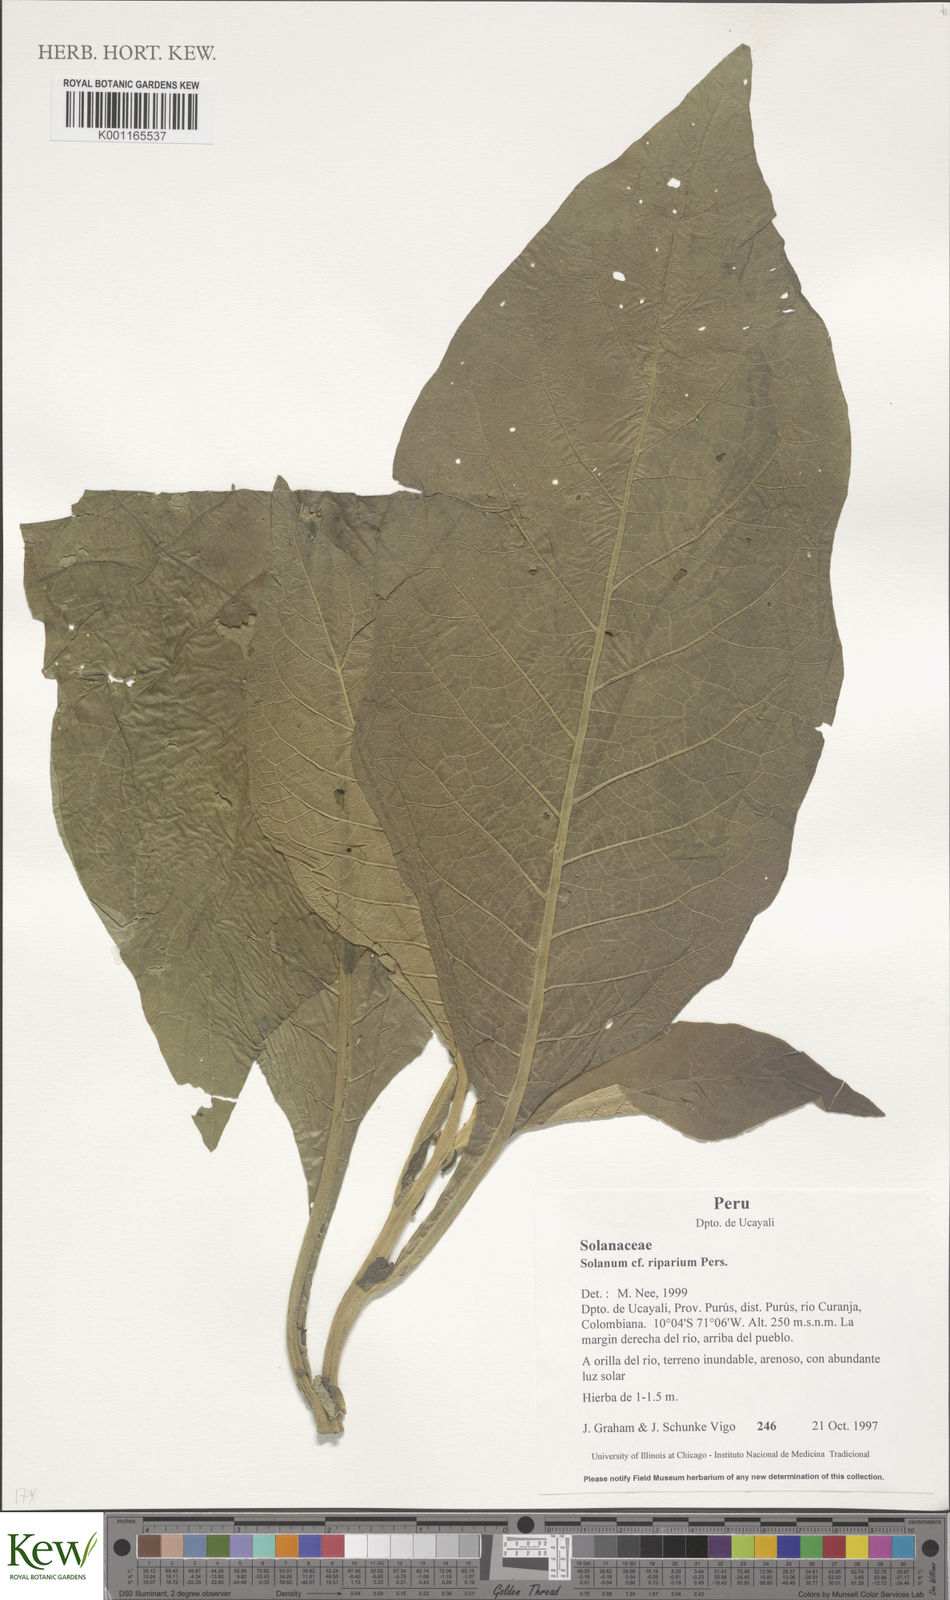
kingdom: Plantae
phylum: Tracheophyta
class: Magnoliopsida
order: Solanales
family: Solanaceae
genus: Solanum
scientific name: Solanum riparium
